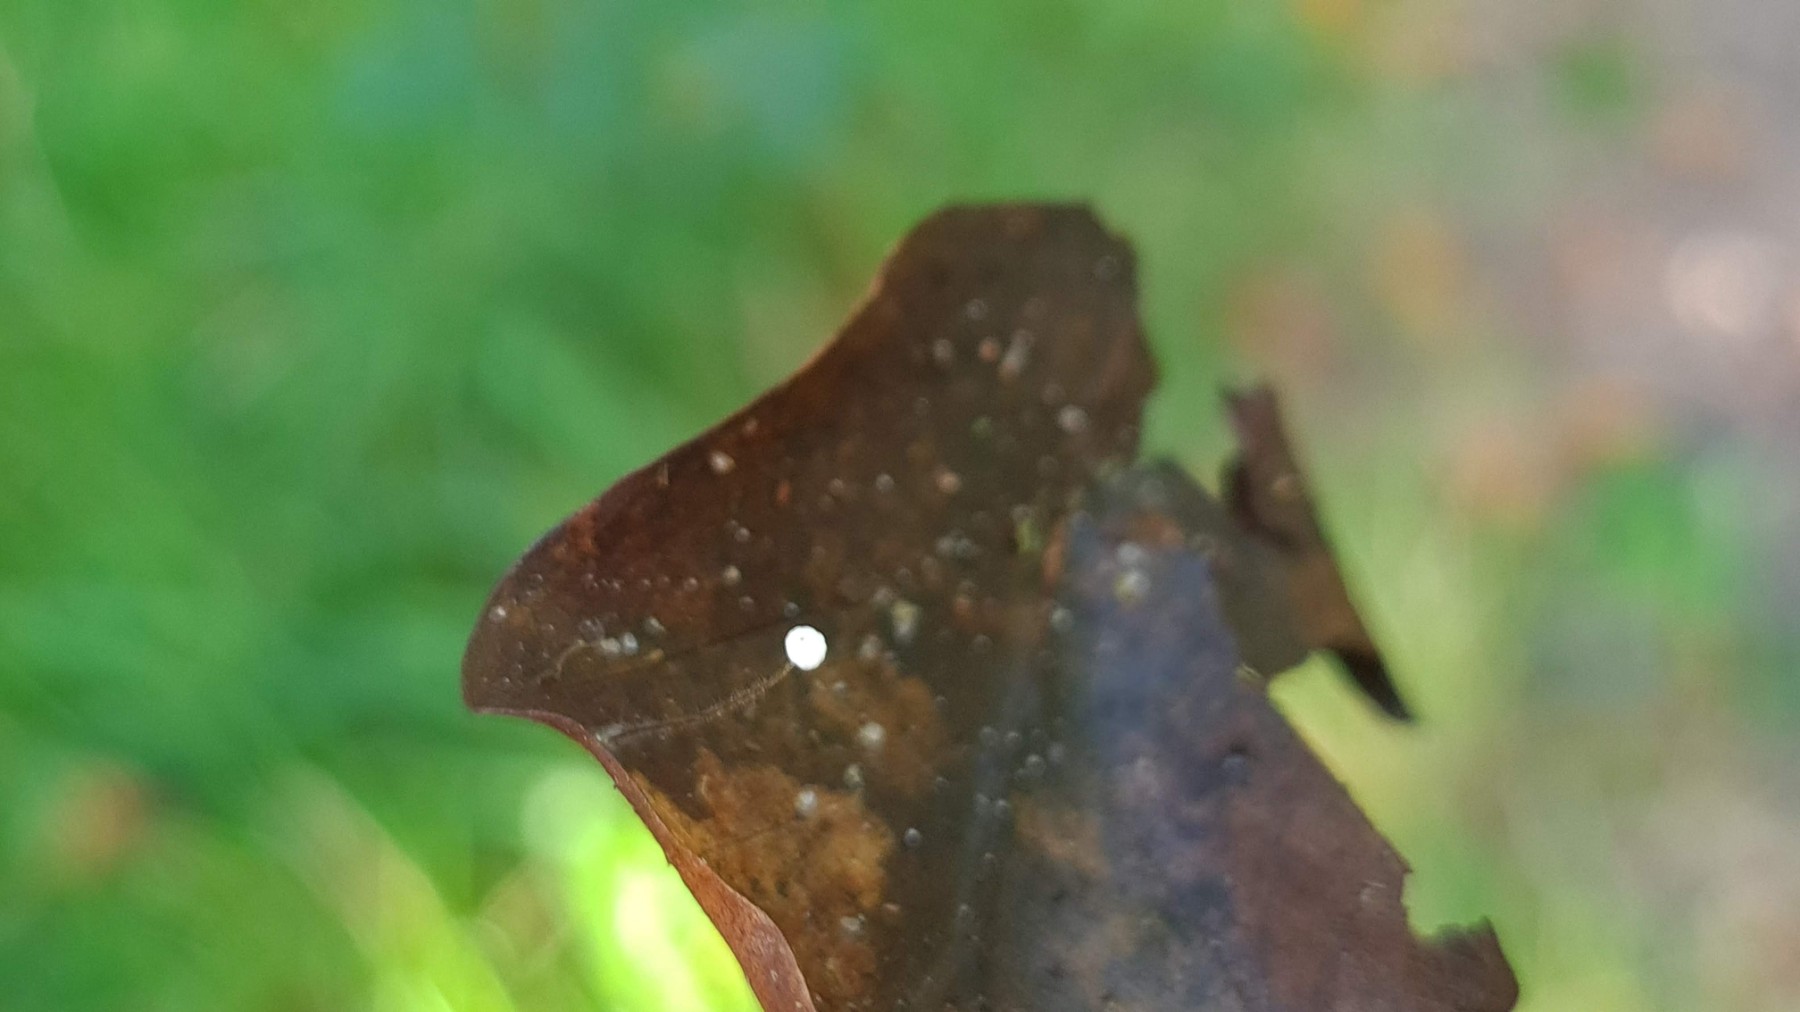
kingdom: Fungi
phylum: Basidiomycota
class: Agaricomycetes
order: Agaricales
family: Physalacriaceae
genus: Rhizomarasmius
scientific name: Rhizomarasmius setosus
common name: bøgeblads-bruskhat
